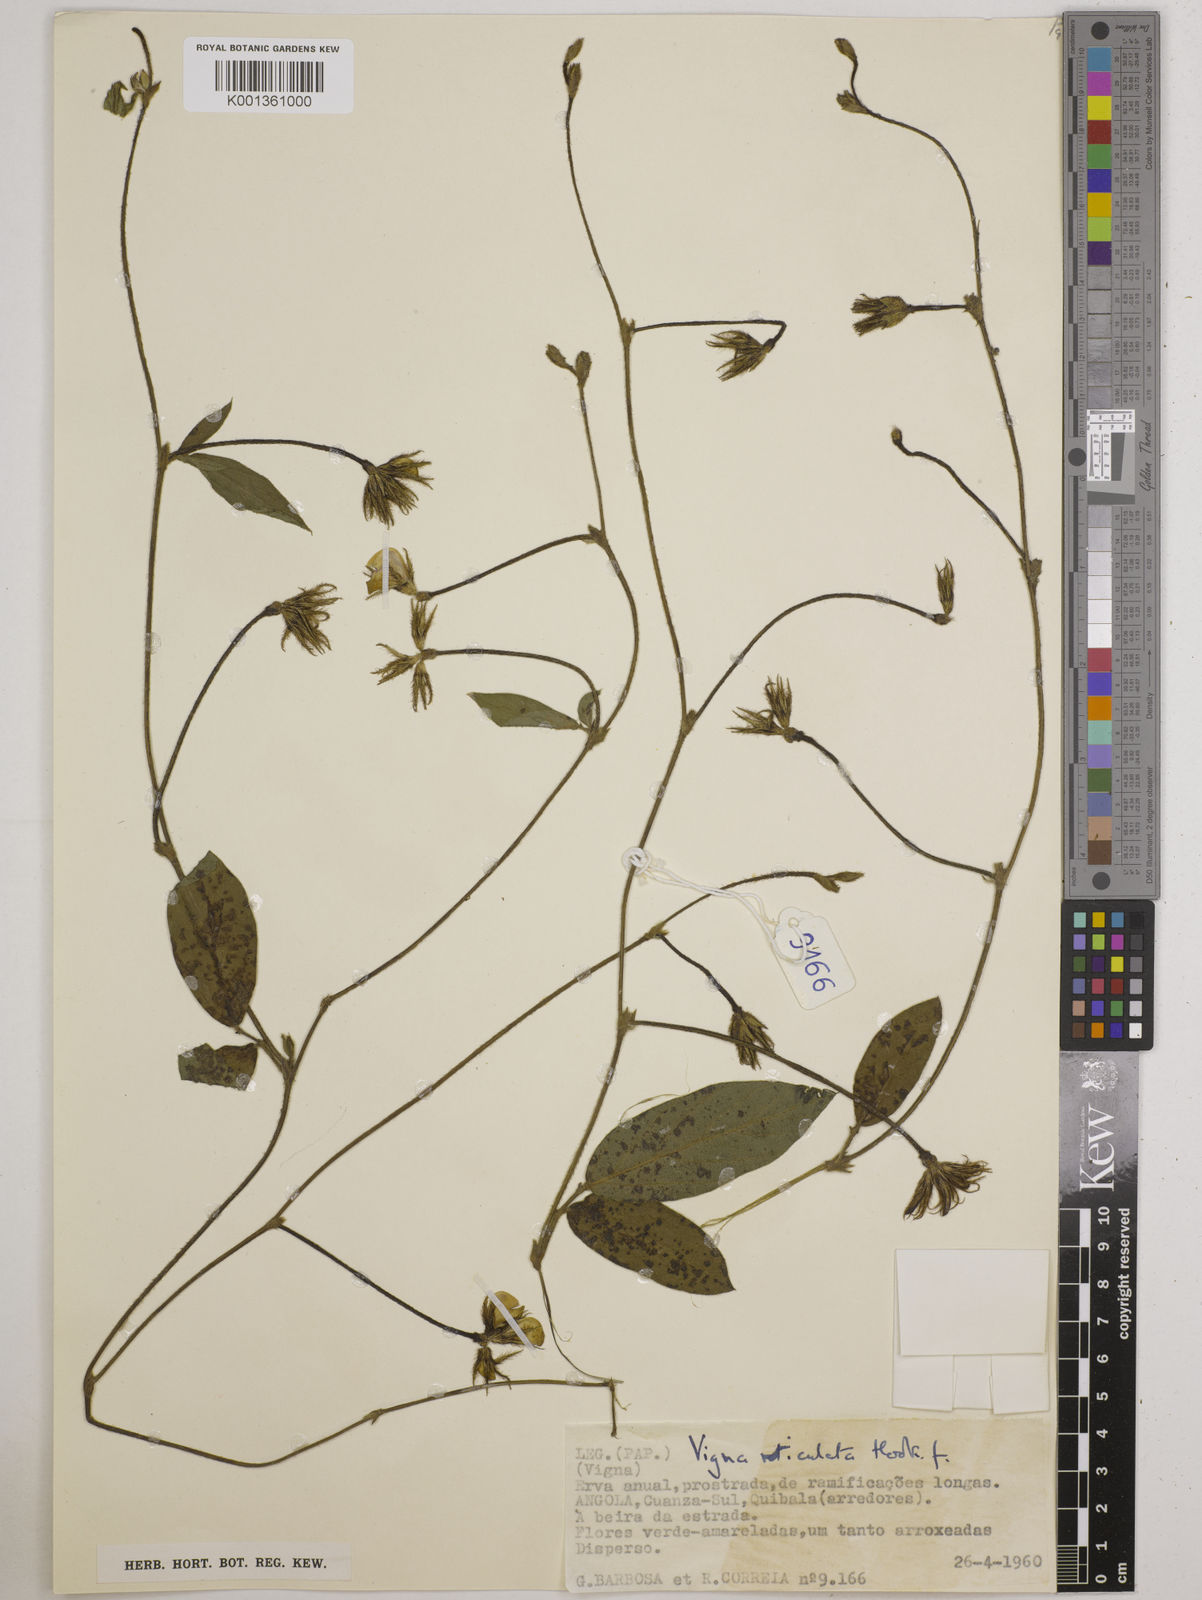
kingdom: Plantae
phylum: Tracheophyta
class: Magnoliopsida
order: Fabales
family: Fabaceae
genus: Vigna
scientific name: Vigna reticulata
